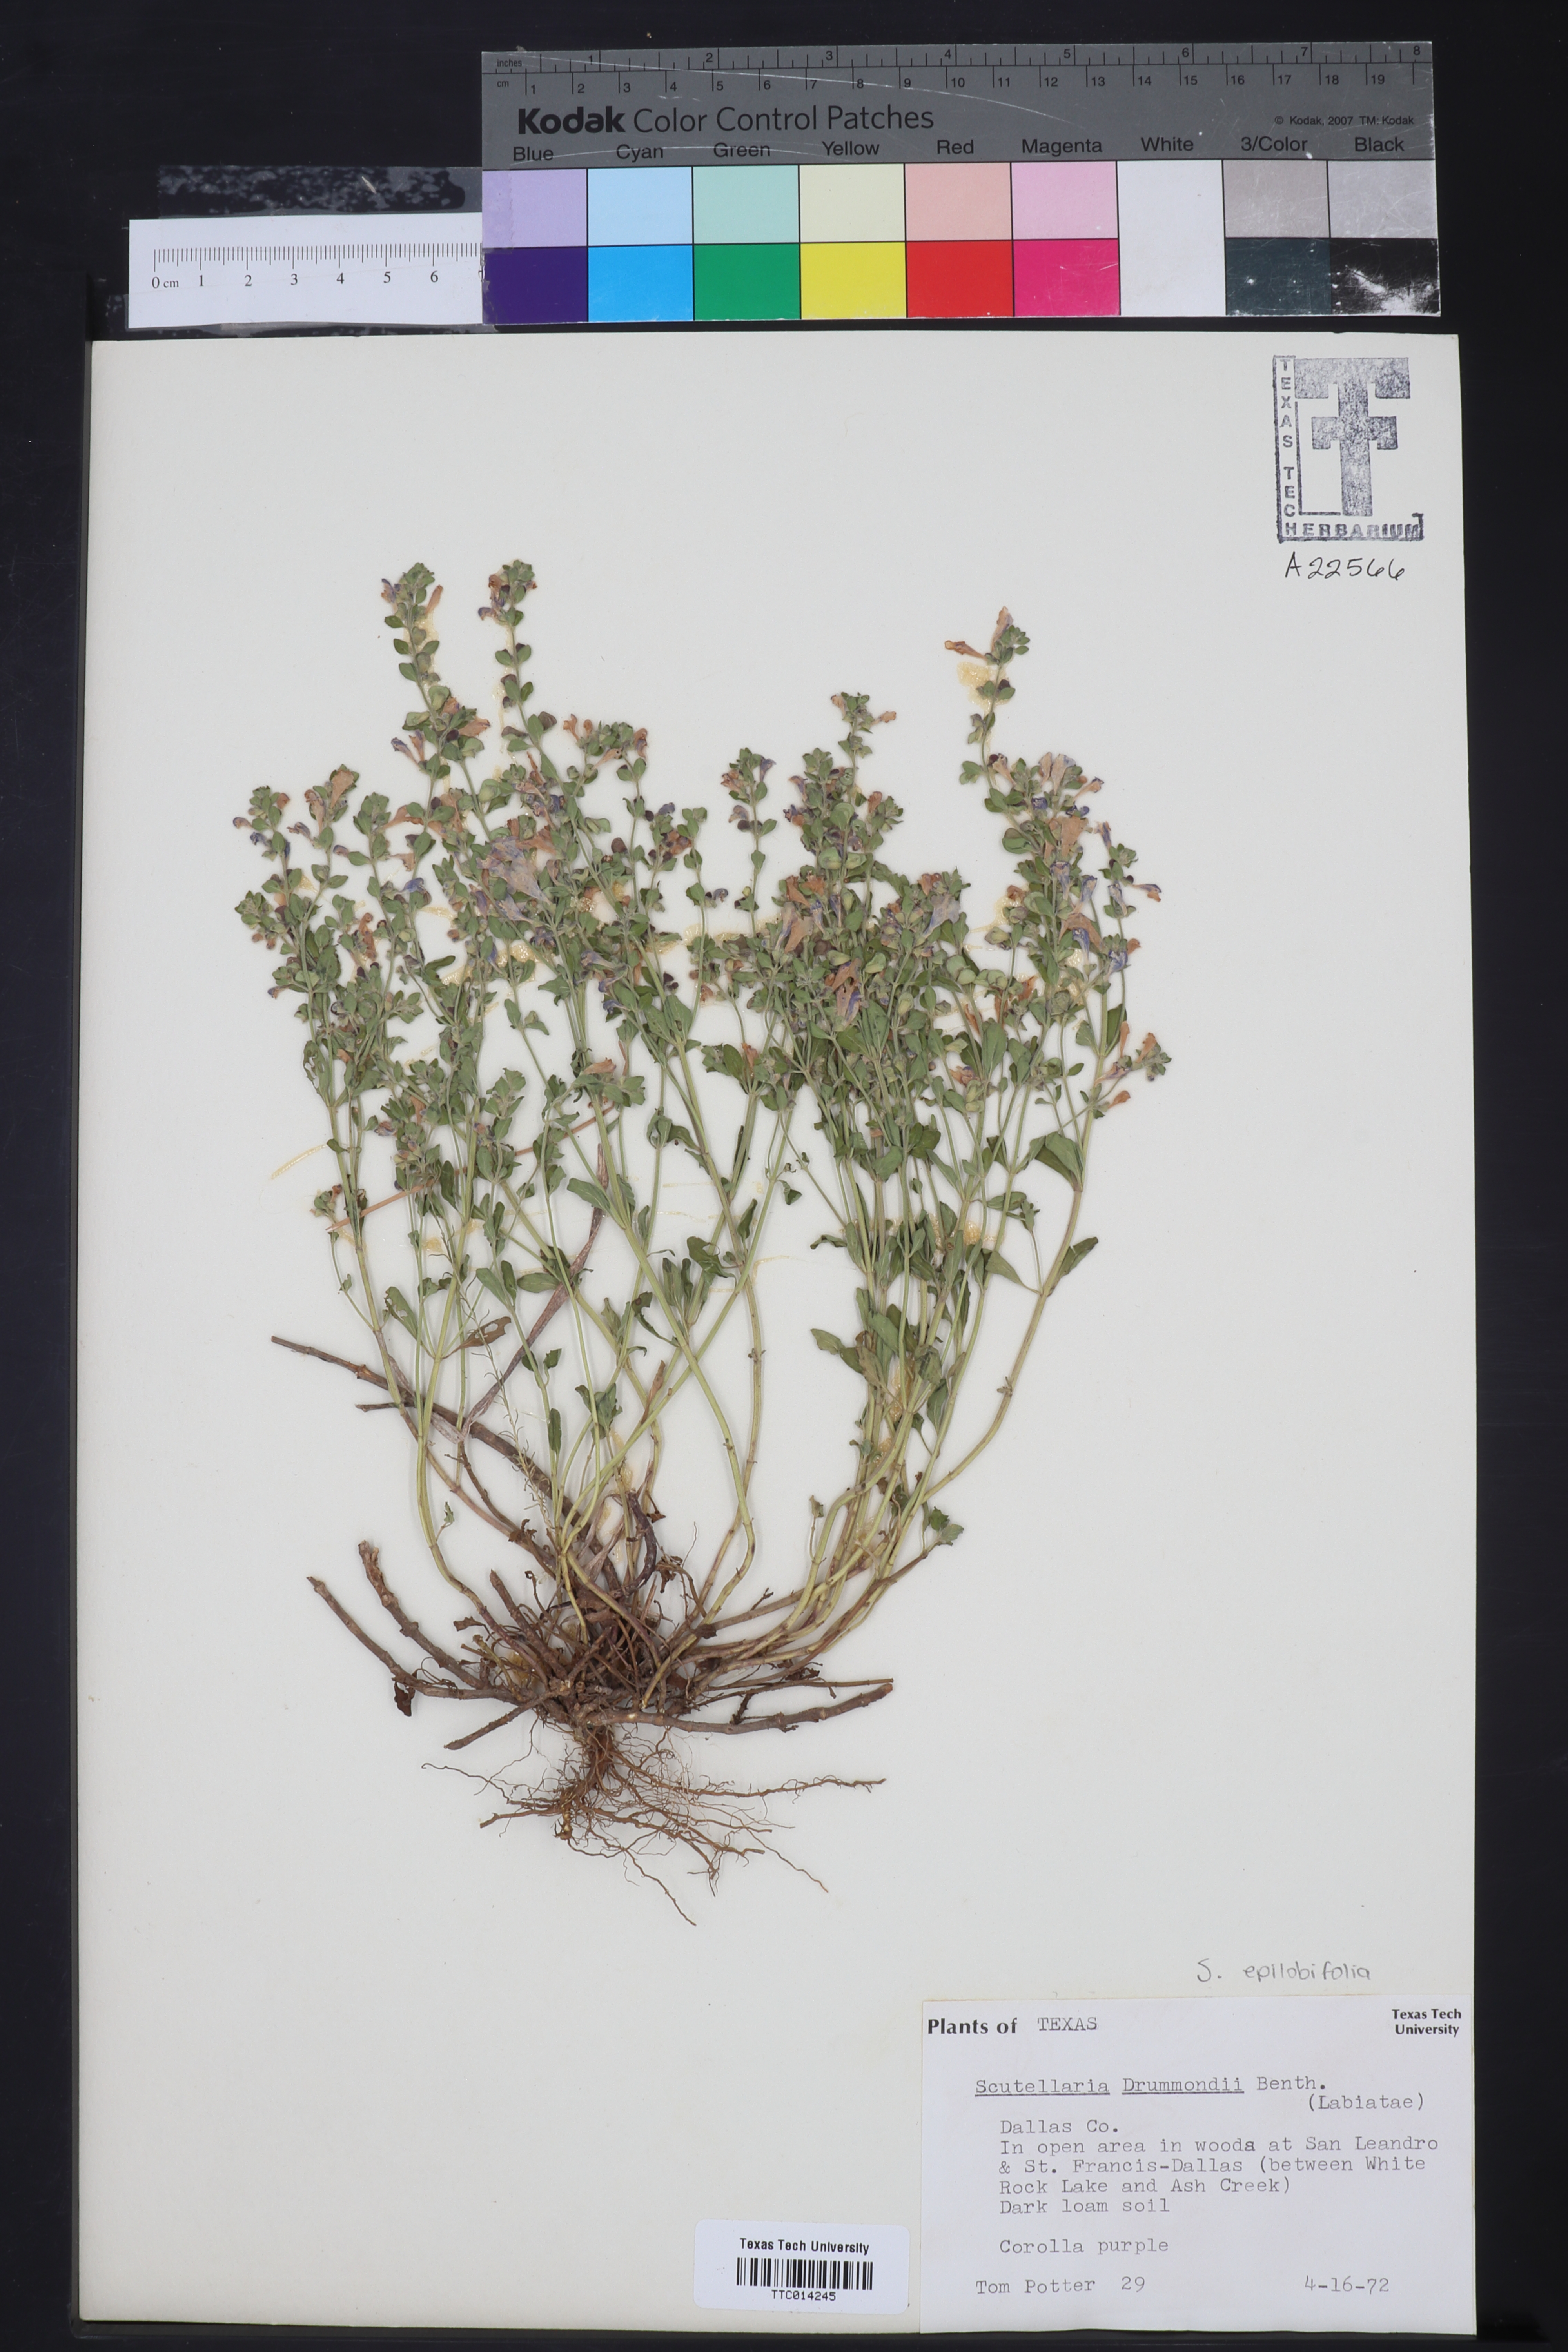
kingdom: Plantae
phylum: Tracheophyta
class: Magnoliopsida
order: Lamiales
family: Lamiaceae
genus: Scutellaria
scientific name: Scutellaria drummondii
